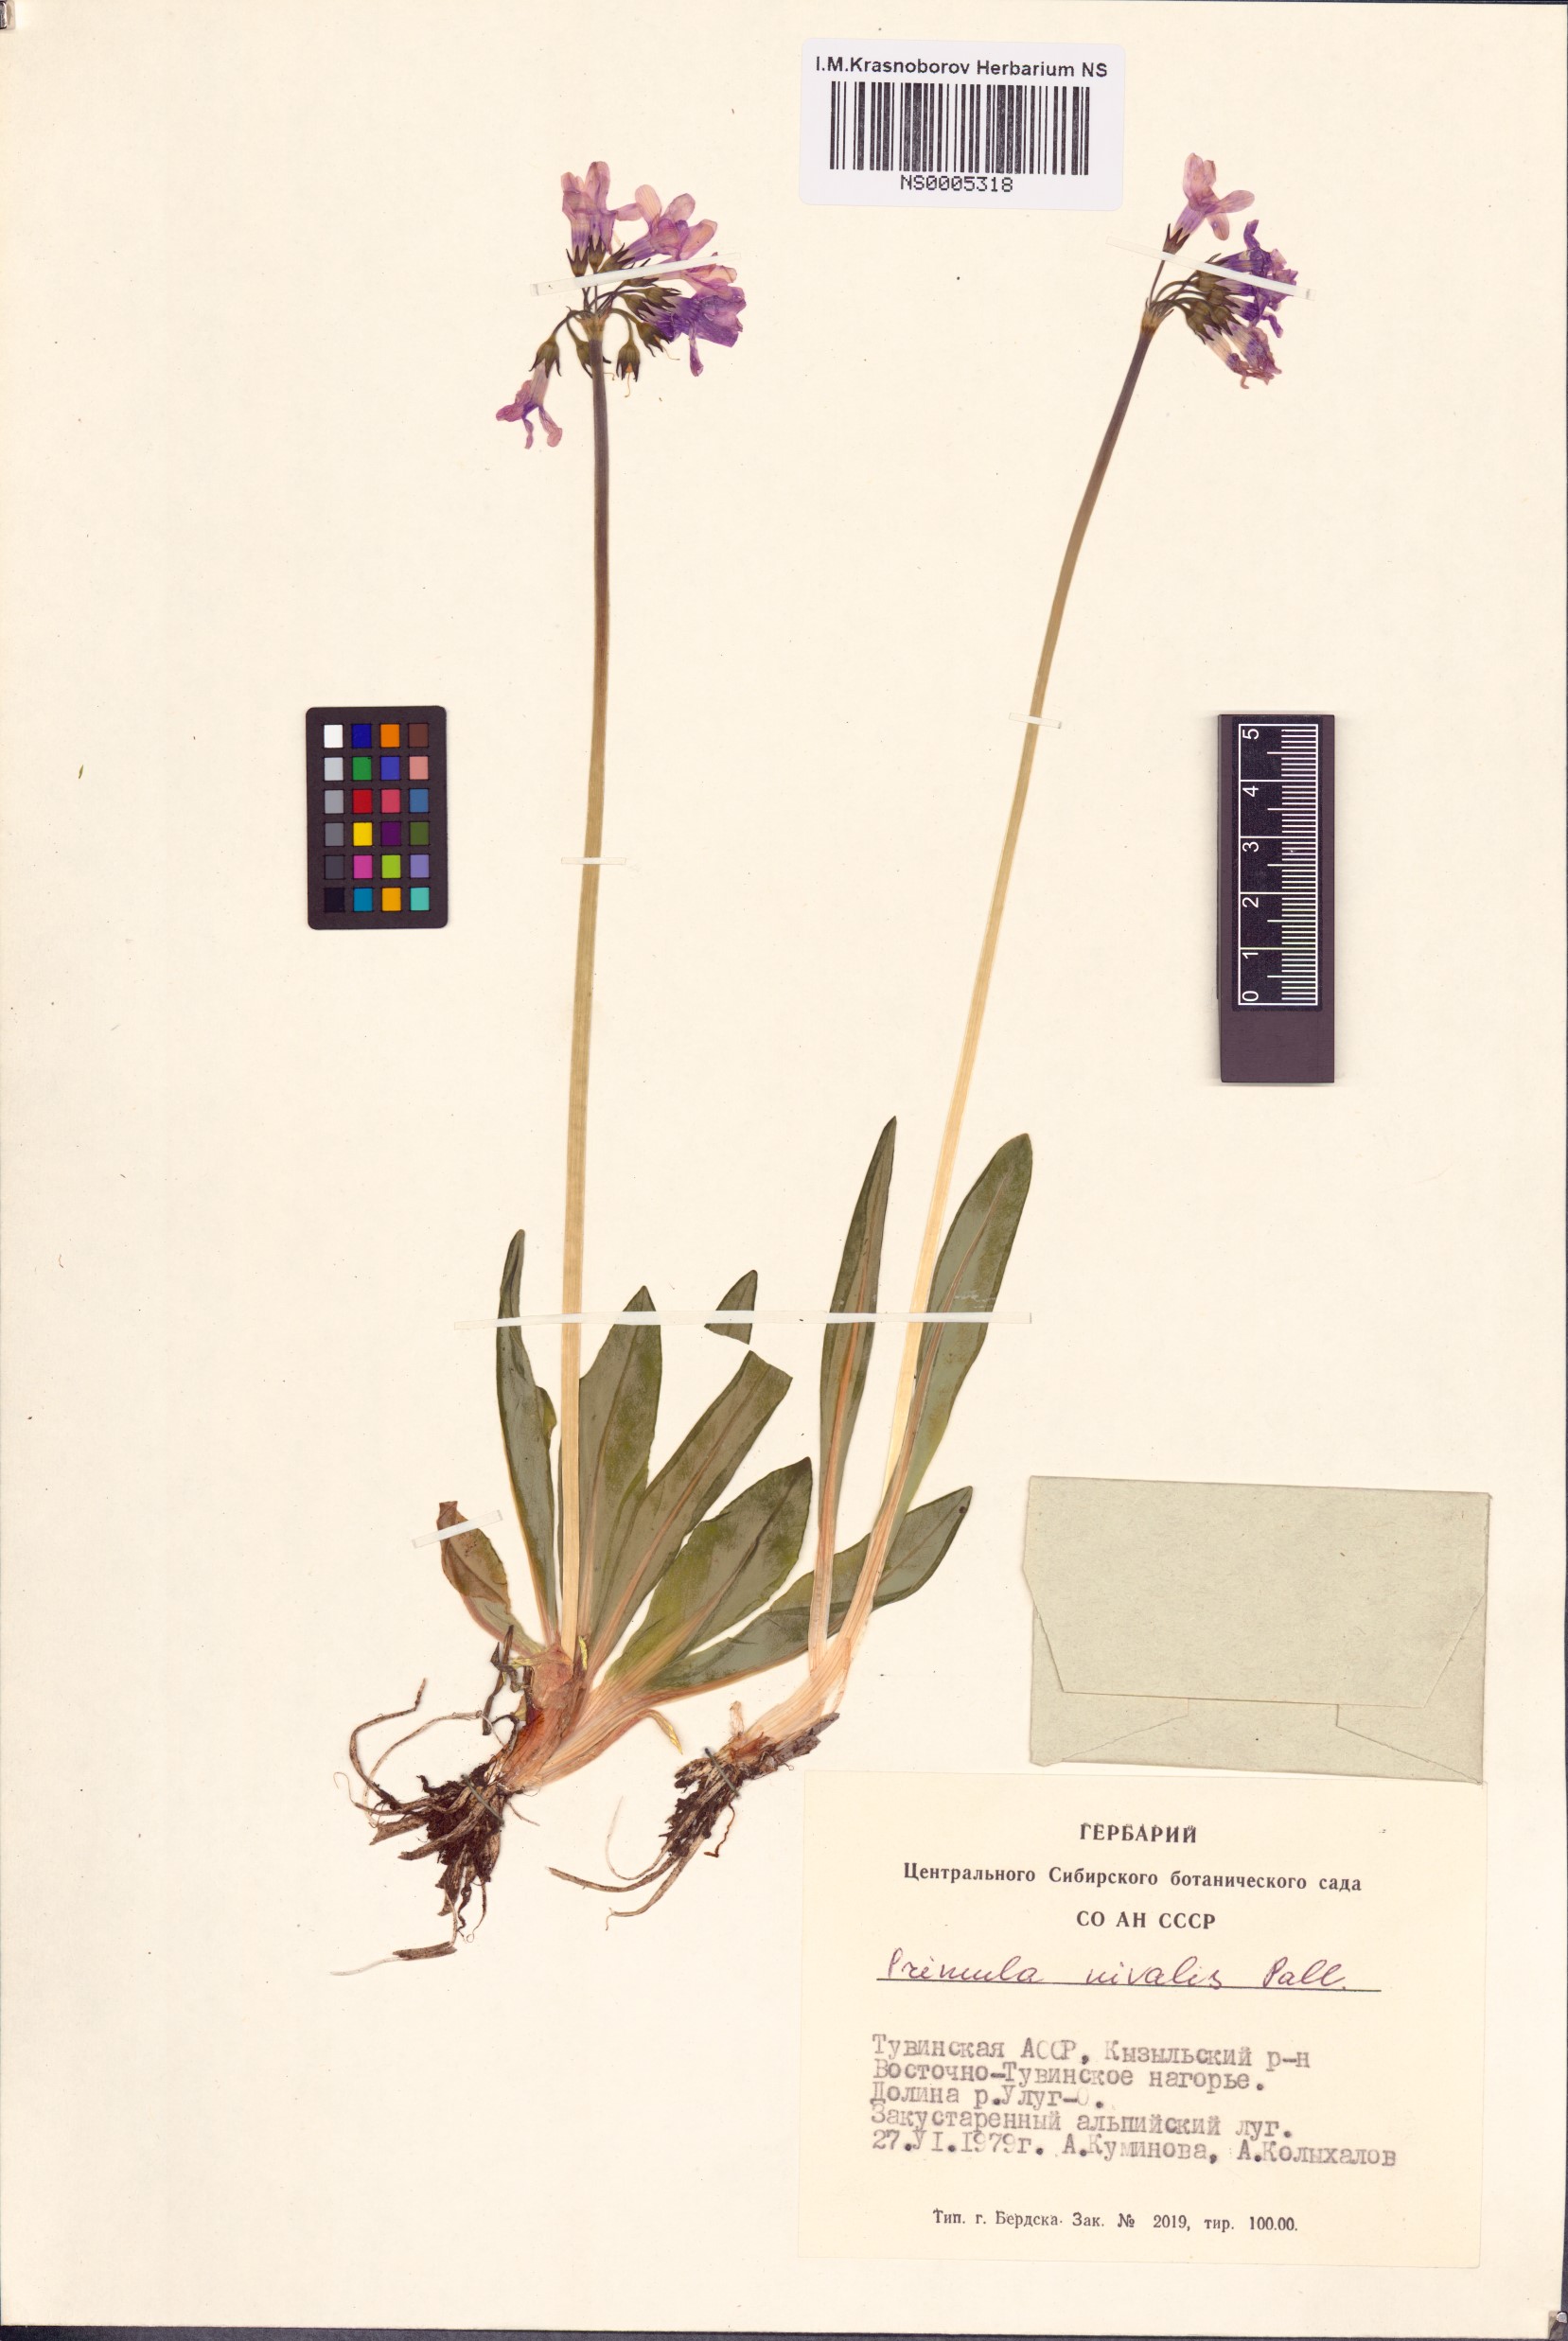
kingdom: Plantae
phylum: Tracheophyta
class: Magnoliopsida
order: Ericales
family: Primulaceae
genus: Primula
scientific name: Primula nivalis
